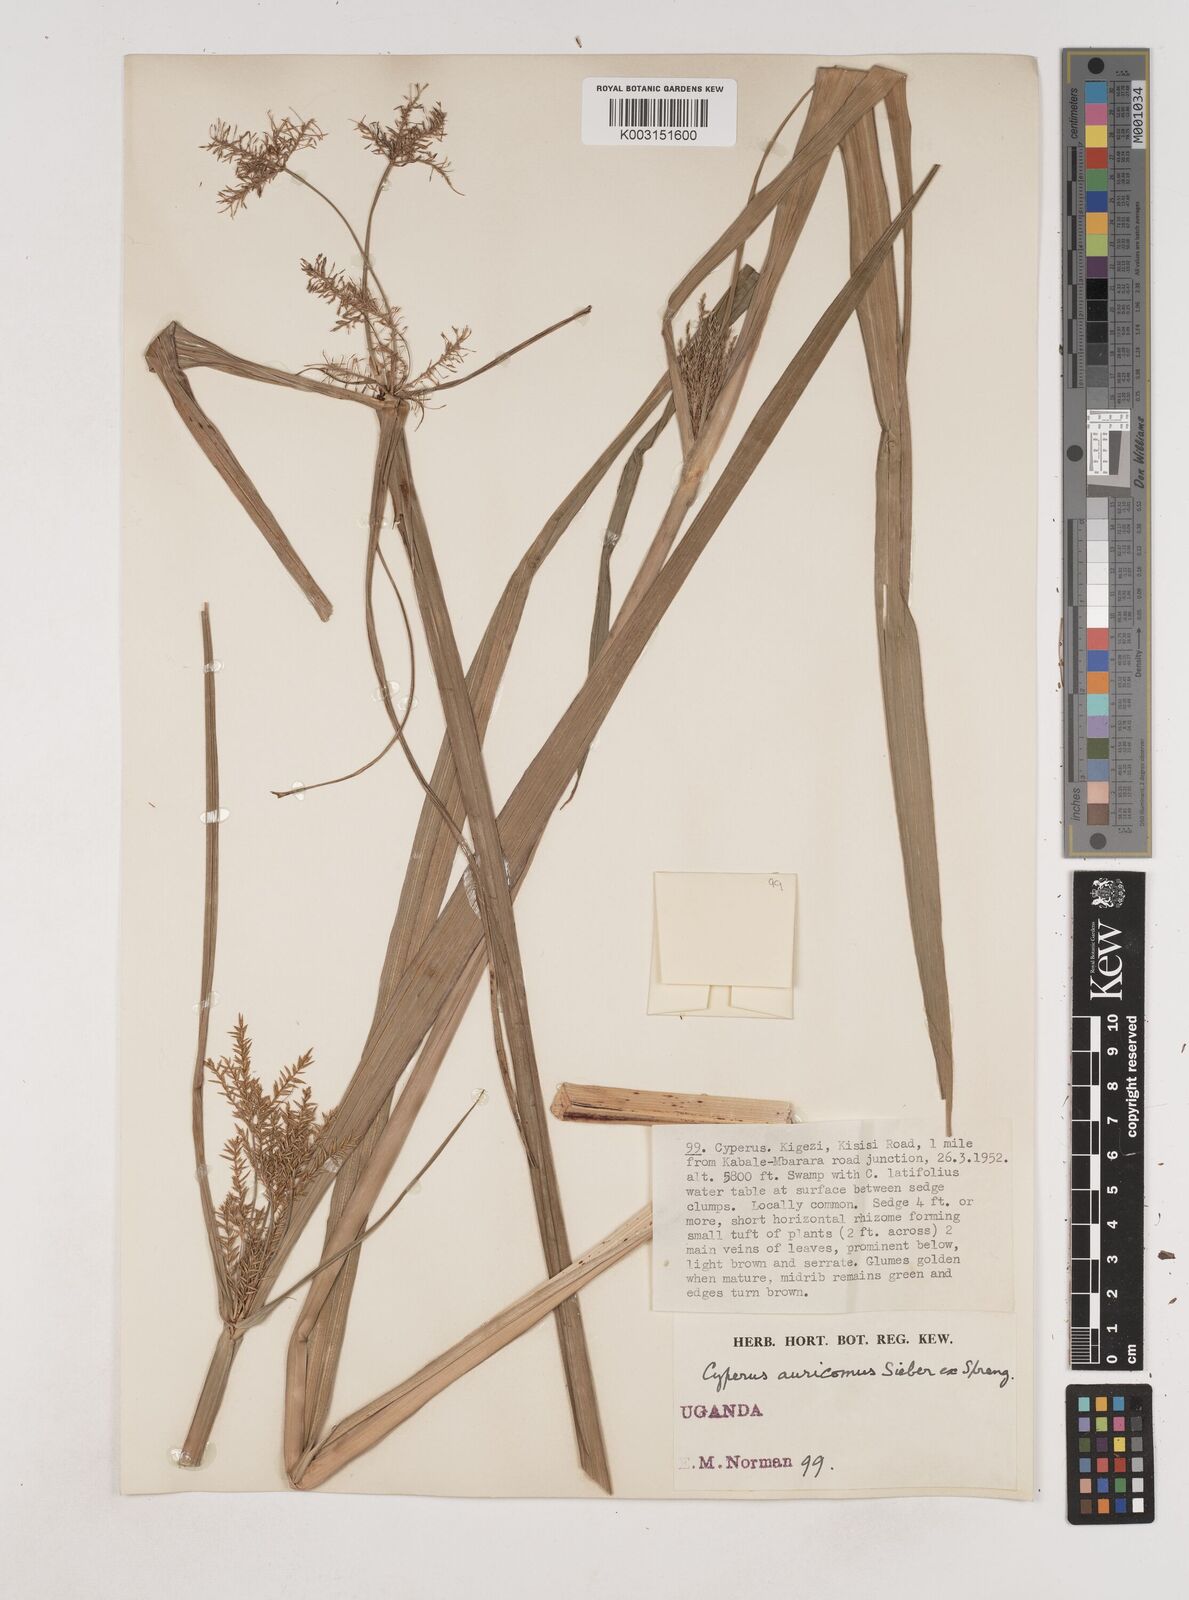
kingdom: Plantae
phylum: Tracheophyta
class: Liliopsida
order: Poales
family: Cyperaceae
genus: Cyperus
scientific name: Cyperus digitatus
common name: Finger flatsedge
